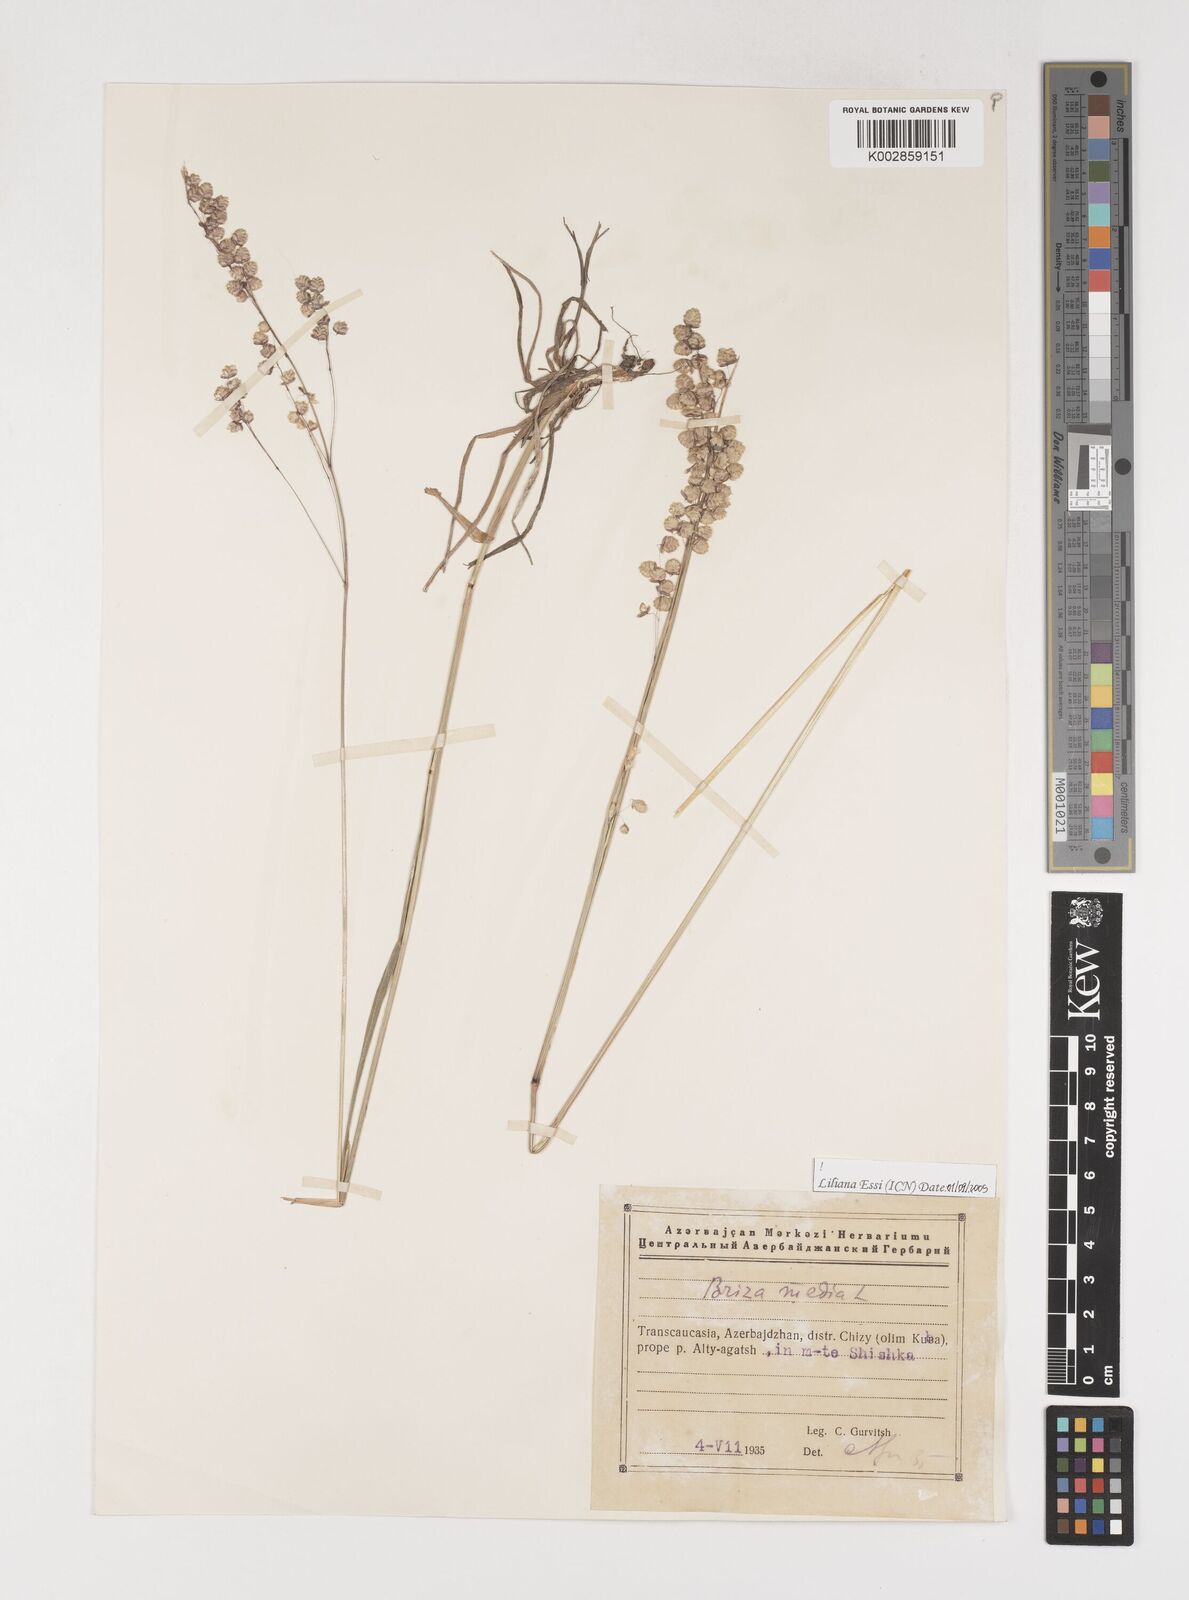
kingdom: Plantae
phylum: Tracheophyta
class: Liliopsida
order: Poales
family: Poaceae
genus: Briza
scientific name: Briza media
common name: Quaking grass
